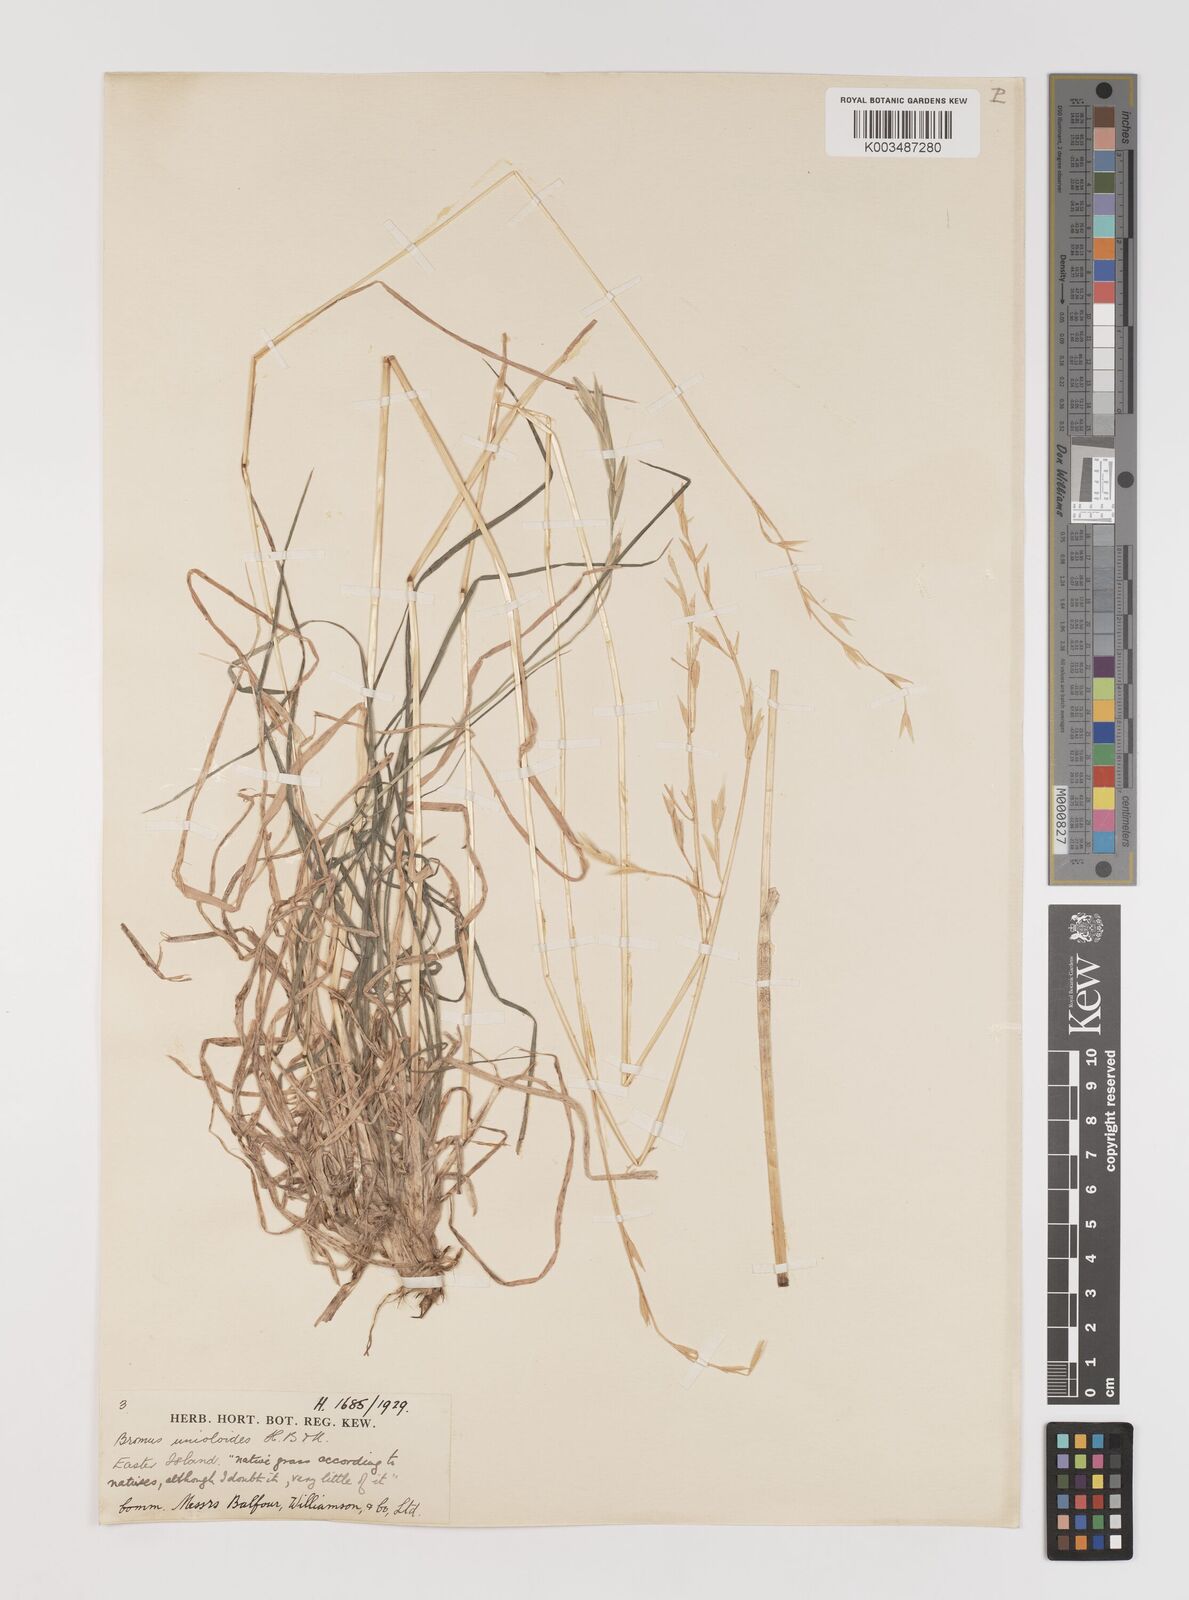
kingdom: Plantae
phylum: Tracheophyta
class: Liliopsida
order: Poales
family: Poaceae
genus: Bromus
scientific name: Bromus catharticus
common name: Rescuegrass
